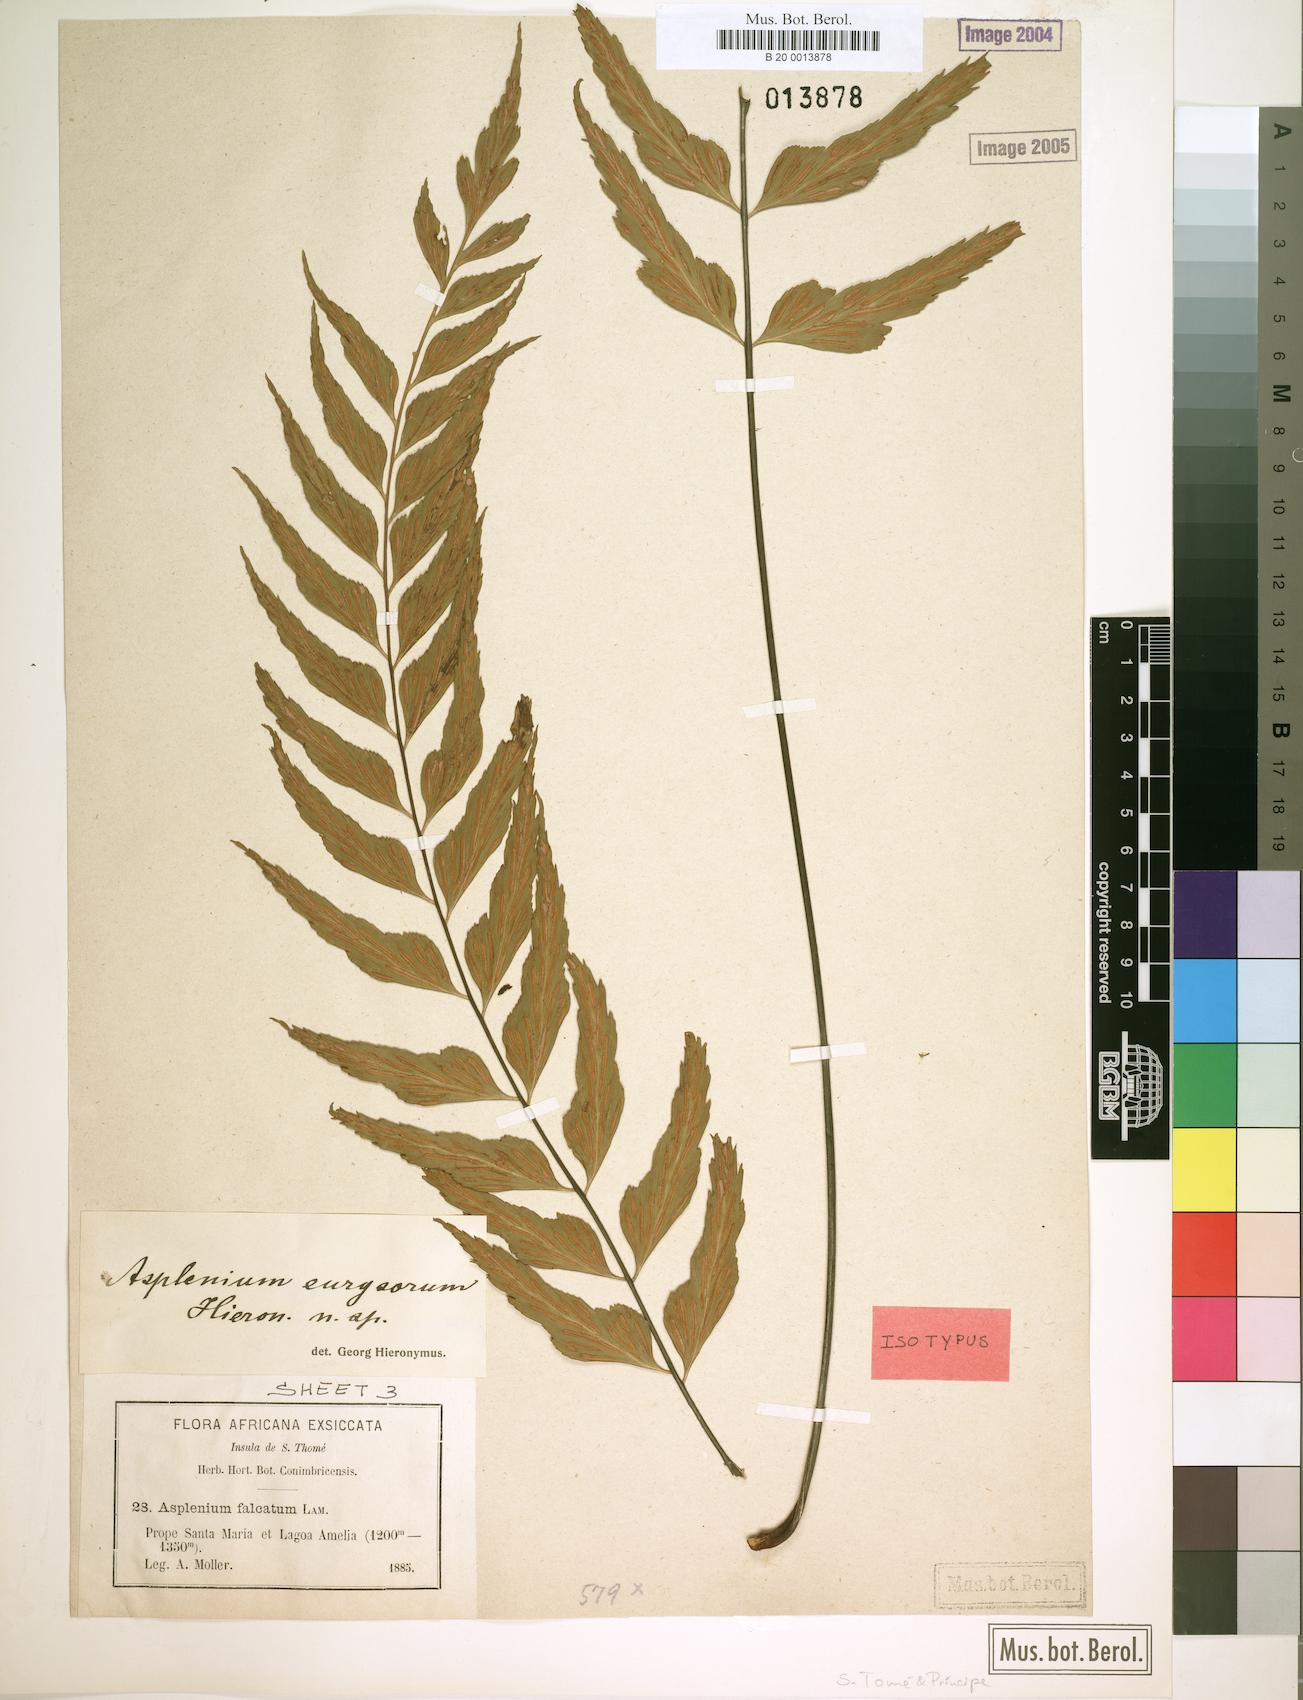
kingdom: Plantae
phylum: Tracheophyta
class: Polypodiopsida
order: Polypodiales
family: Aspleniaceae
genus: Asplenium
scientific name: Asplenium eurysorum
